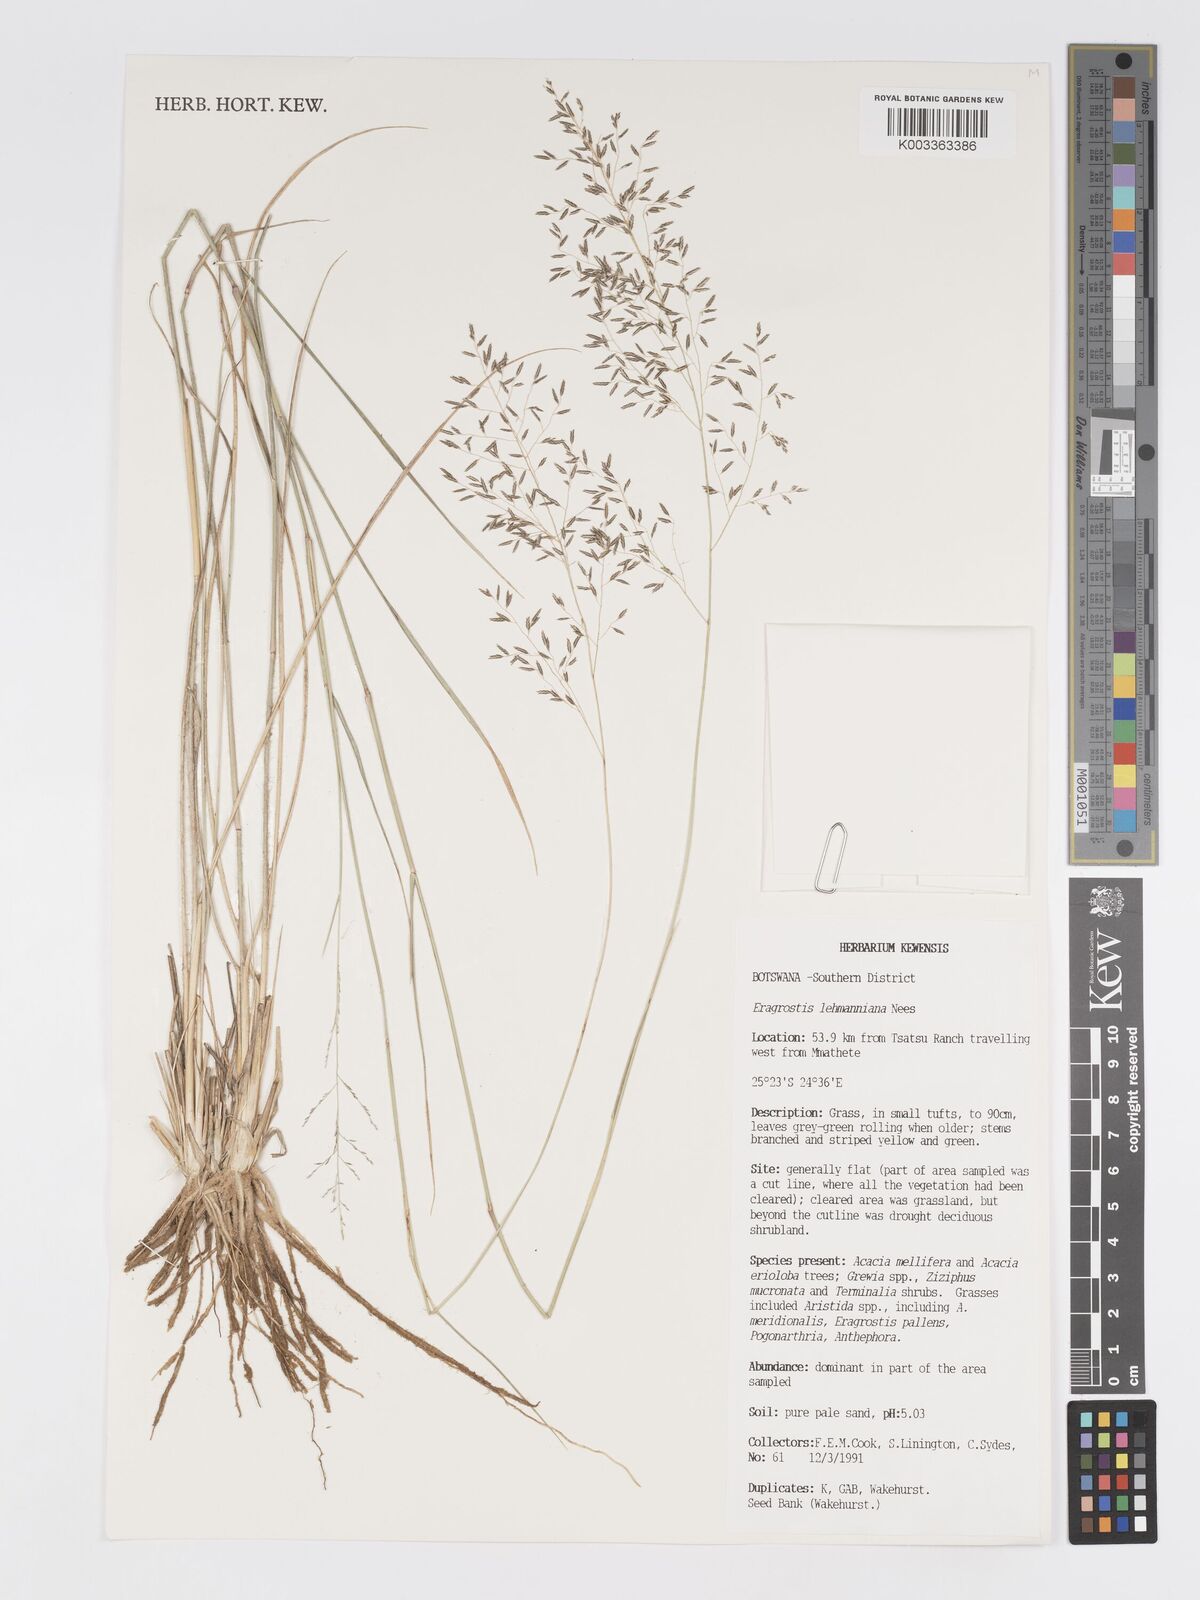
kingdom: Plantae
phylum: Tracheophyta
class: Liliopsida
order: Poales
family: Poaceae
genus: Eragrostis
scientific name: Eragrostis lehmanniana
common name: Lehmann lovegrass
